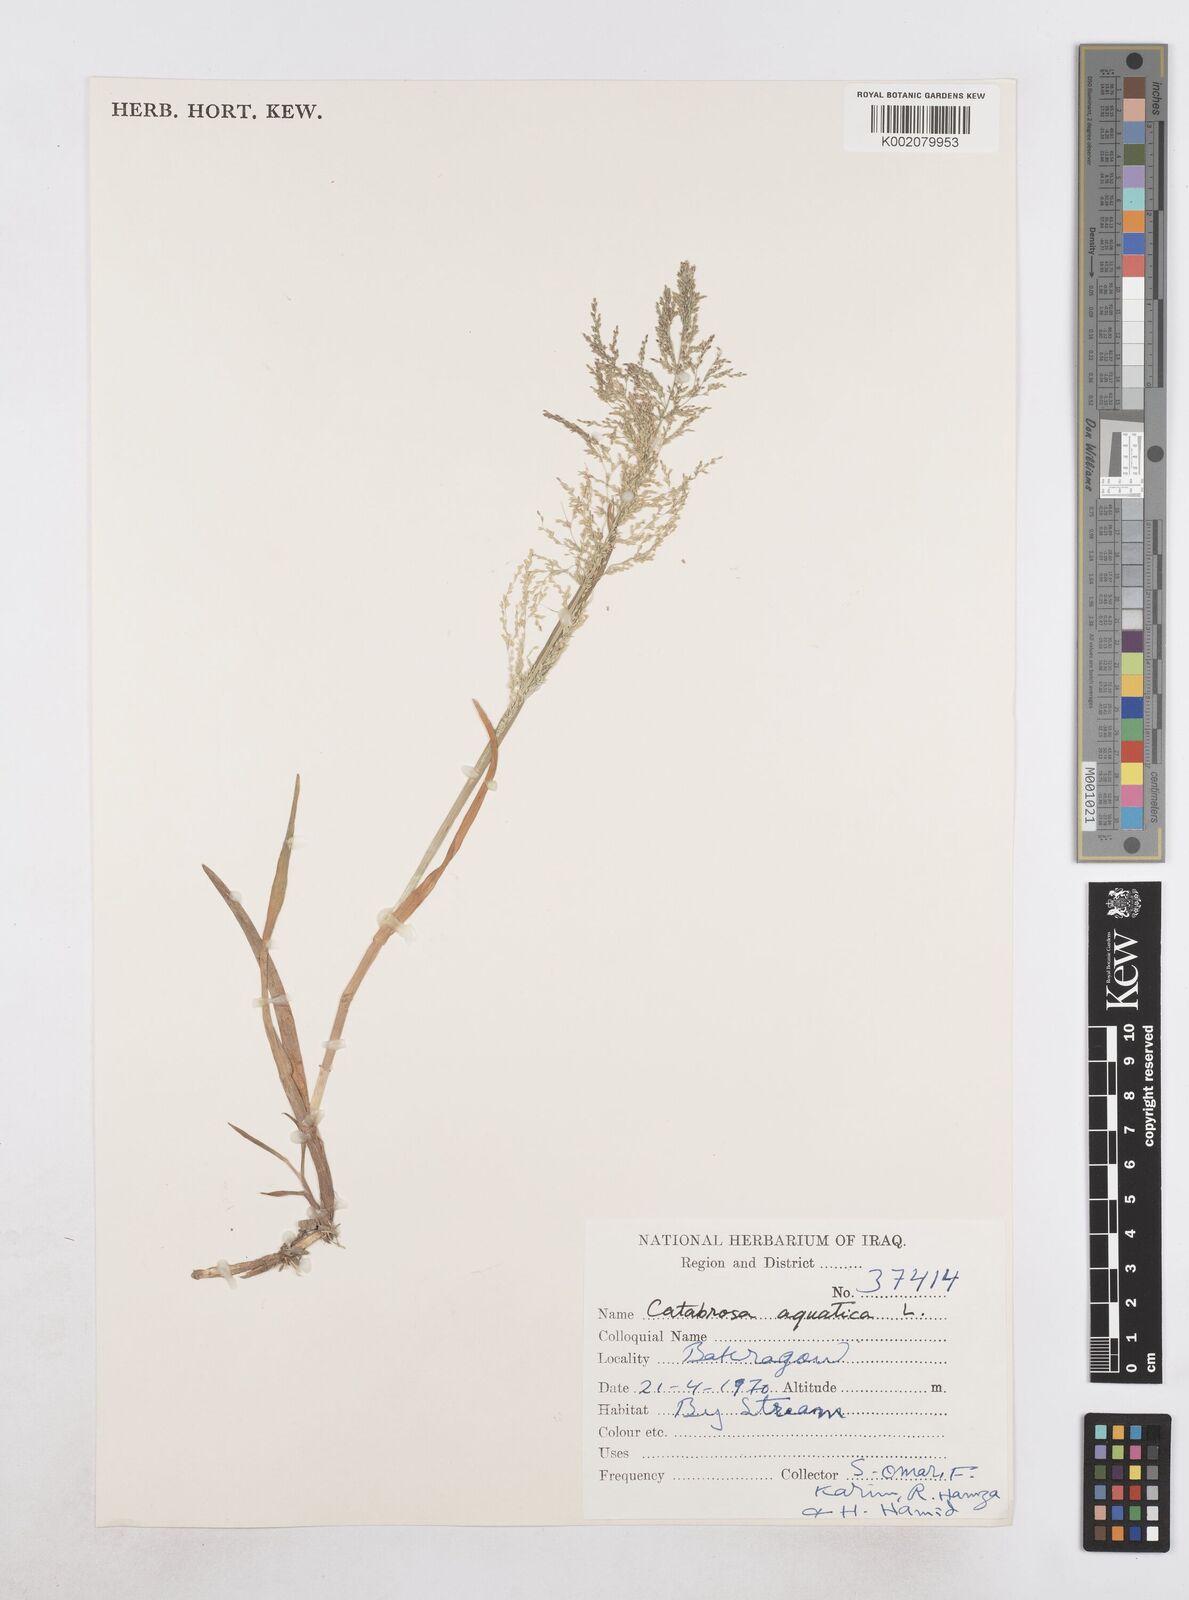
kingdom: Plantae
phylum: Tracheophyta
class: Liliopsida
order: Poales
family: Poaceae
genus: Catabrosa
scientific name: Catabrosa aquatica
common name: Whorl-grass
